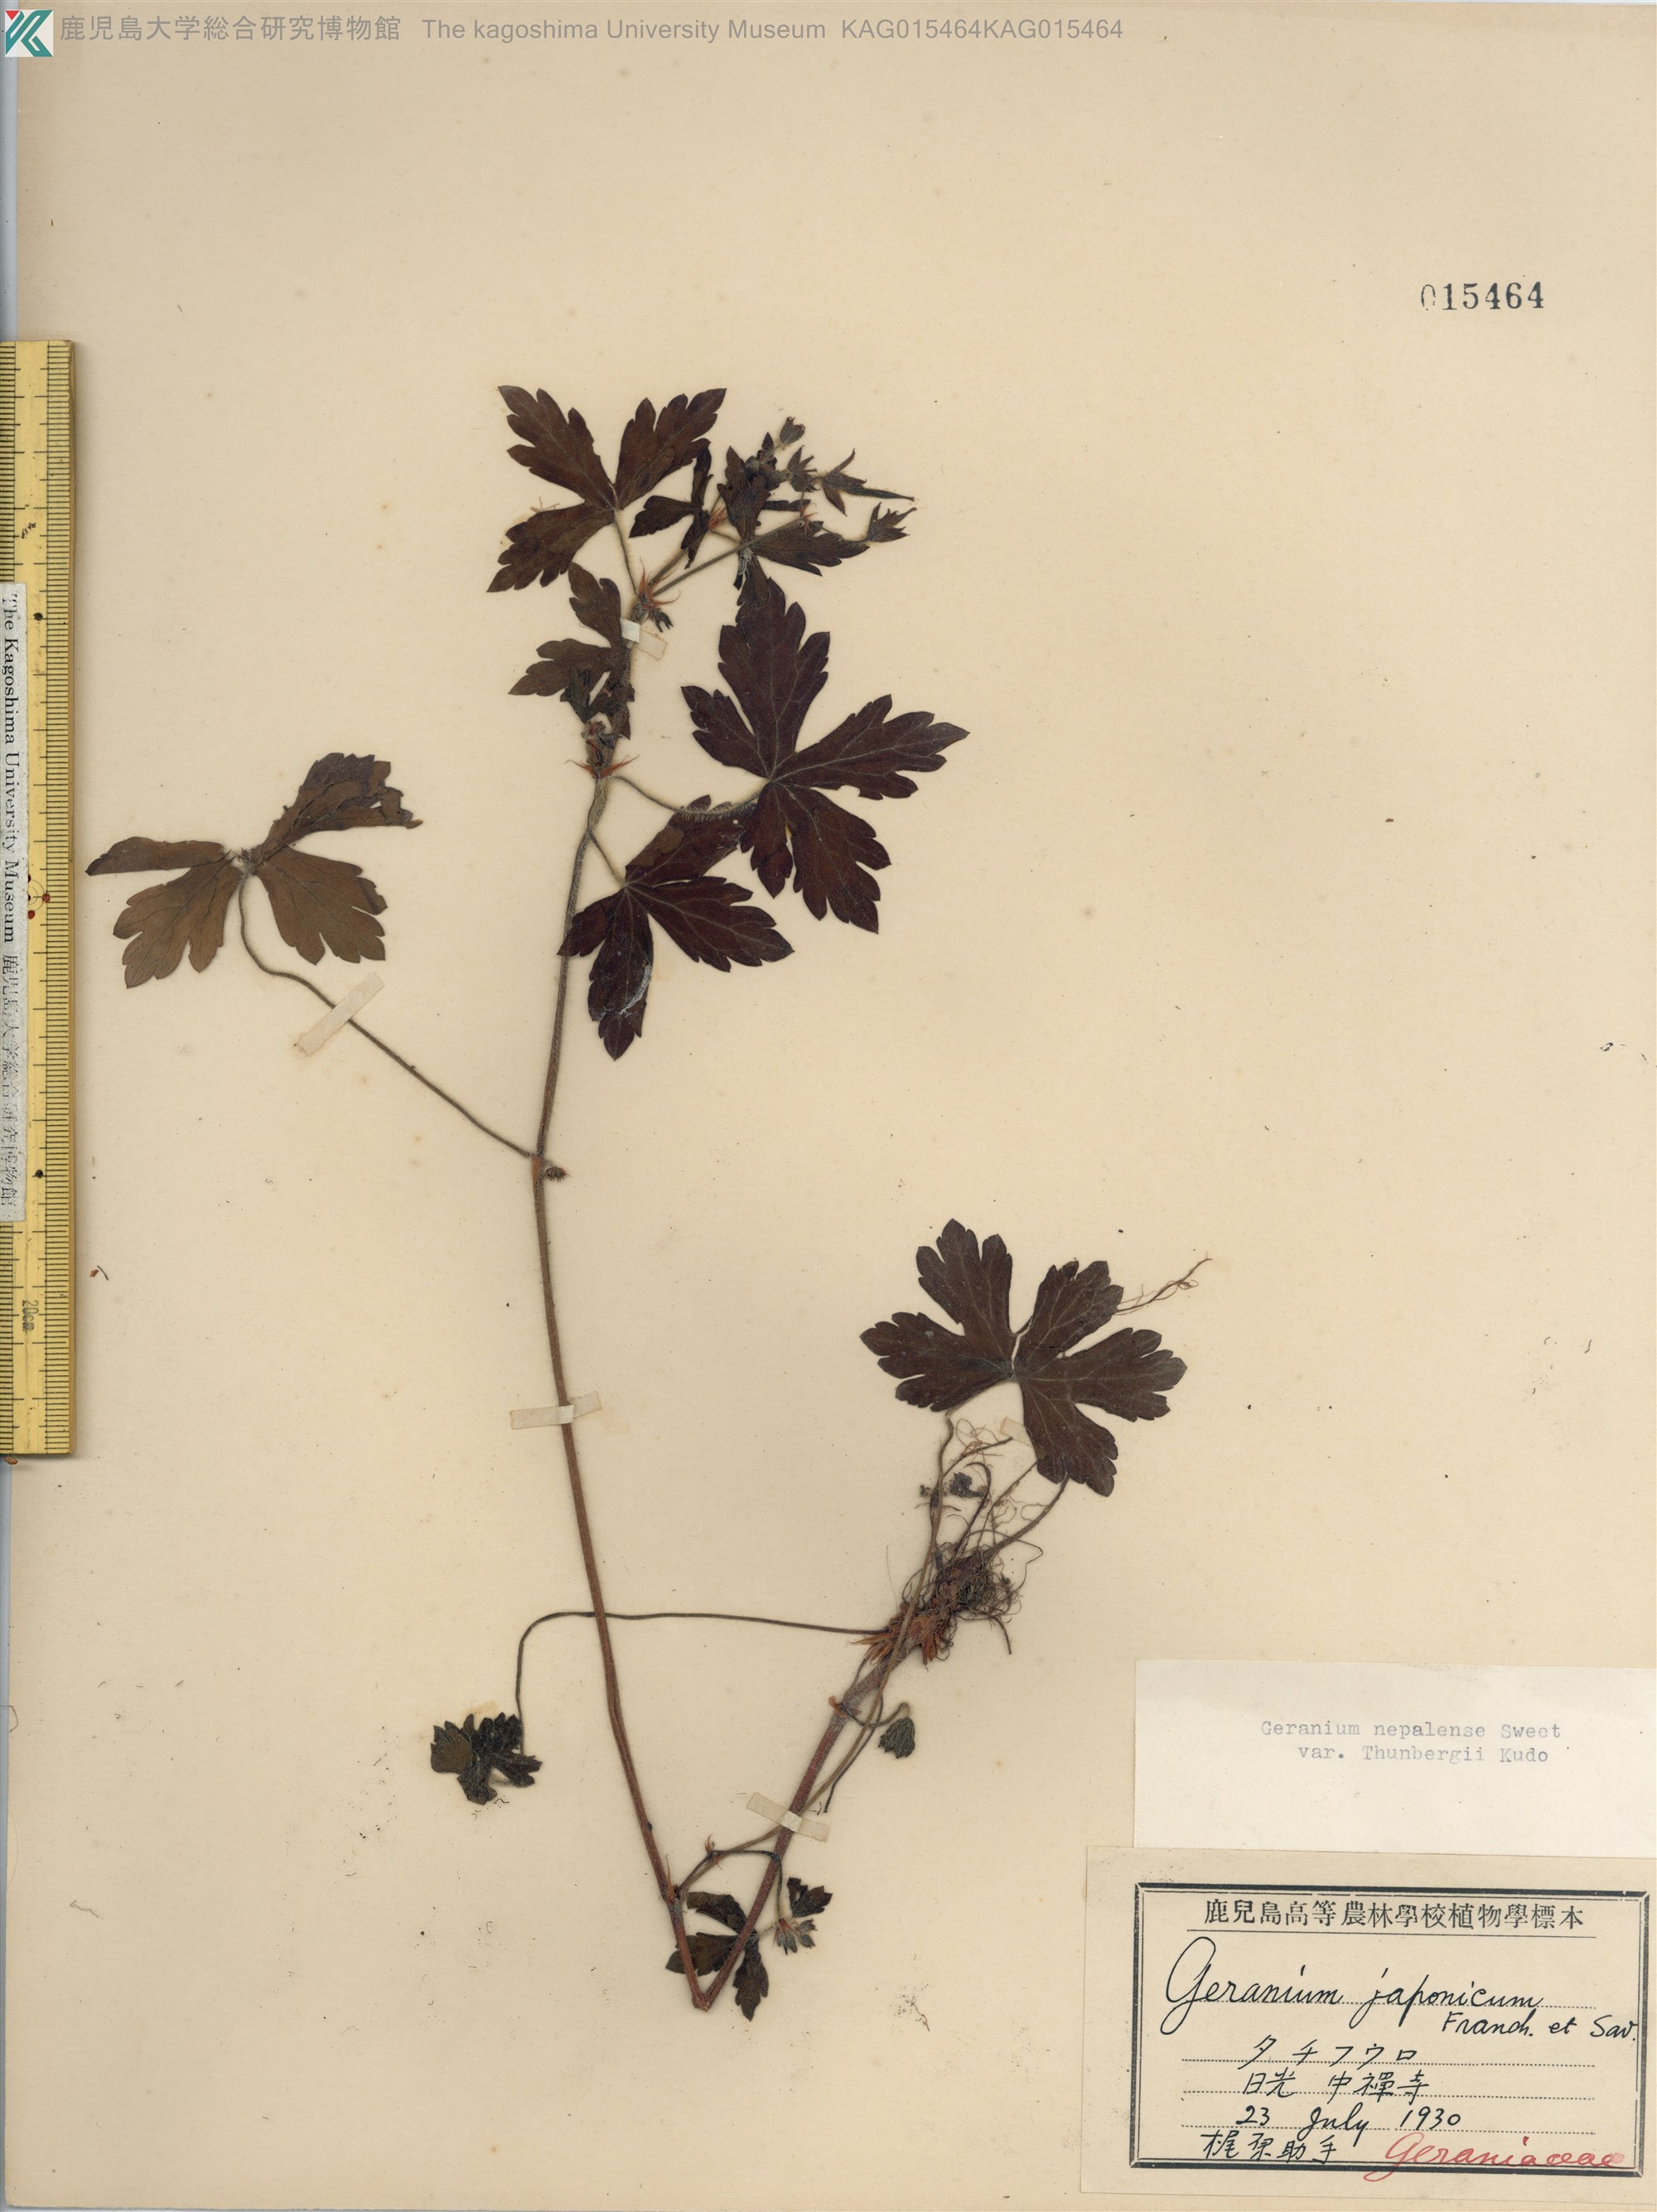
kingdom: Plantae
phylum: Tracheophyta
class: Magnoliopsida
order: Geraniales
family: Geraniaceae
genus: Geranium
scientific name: Geranium thunbergii
